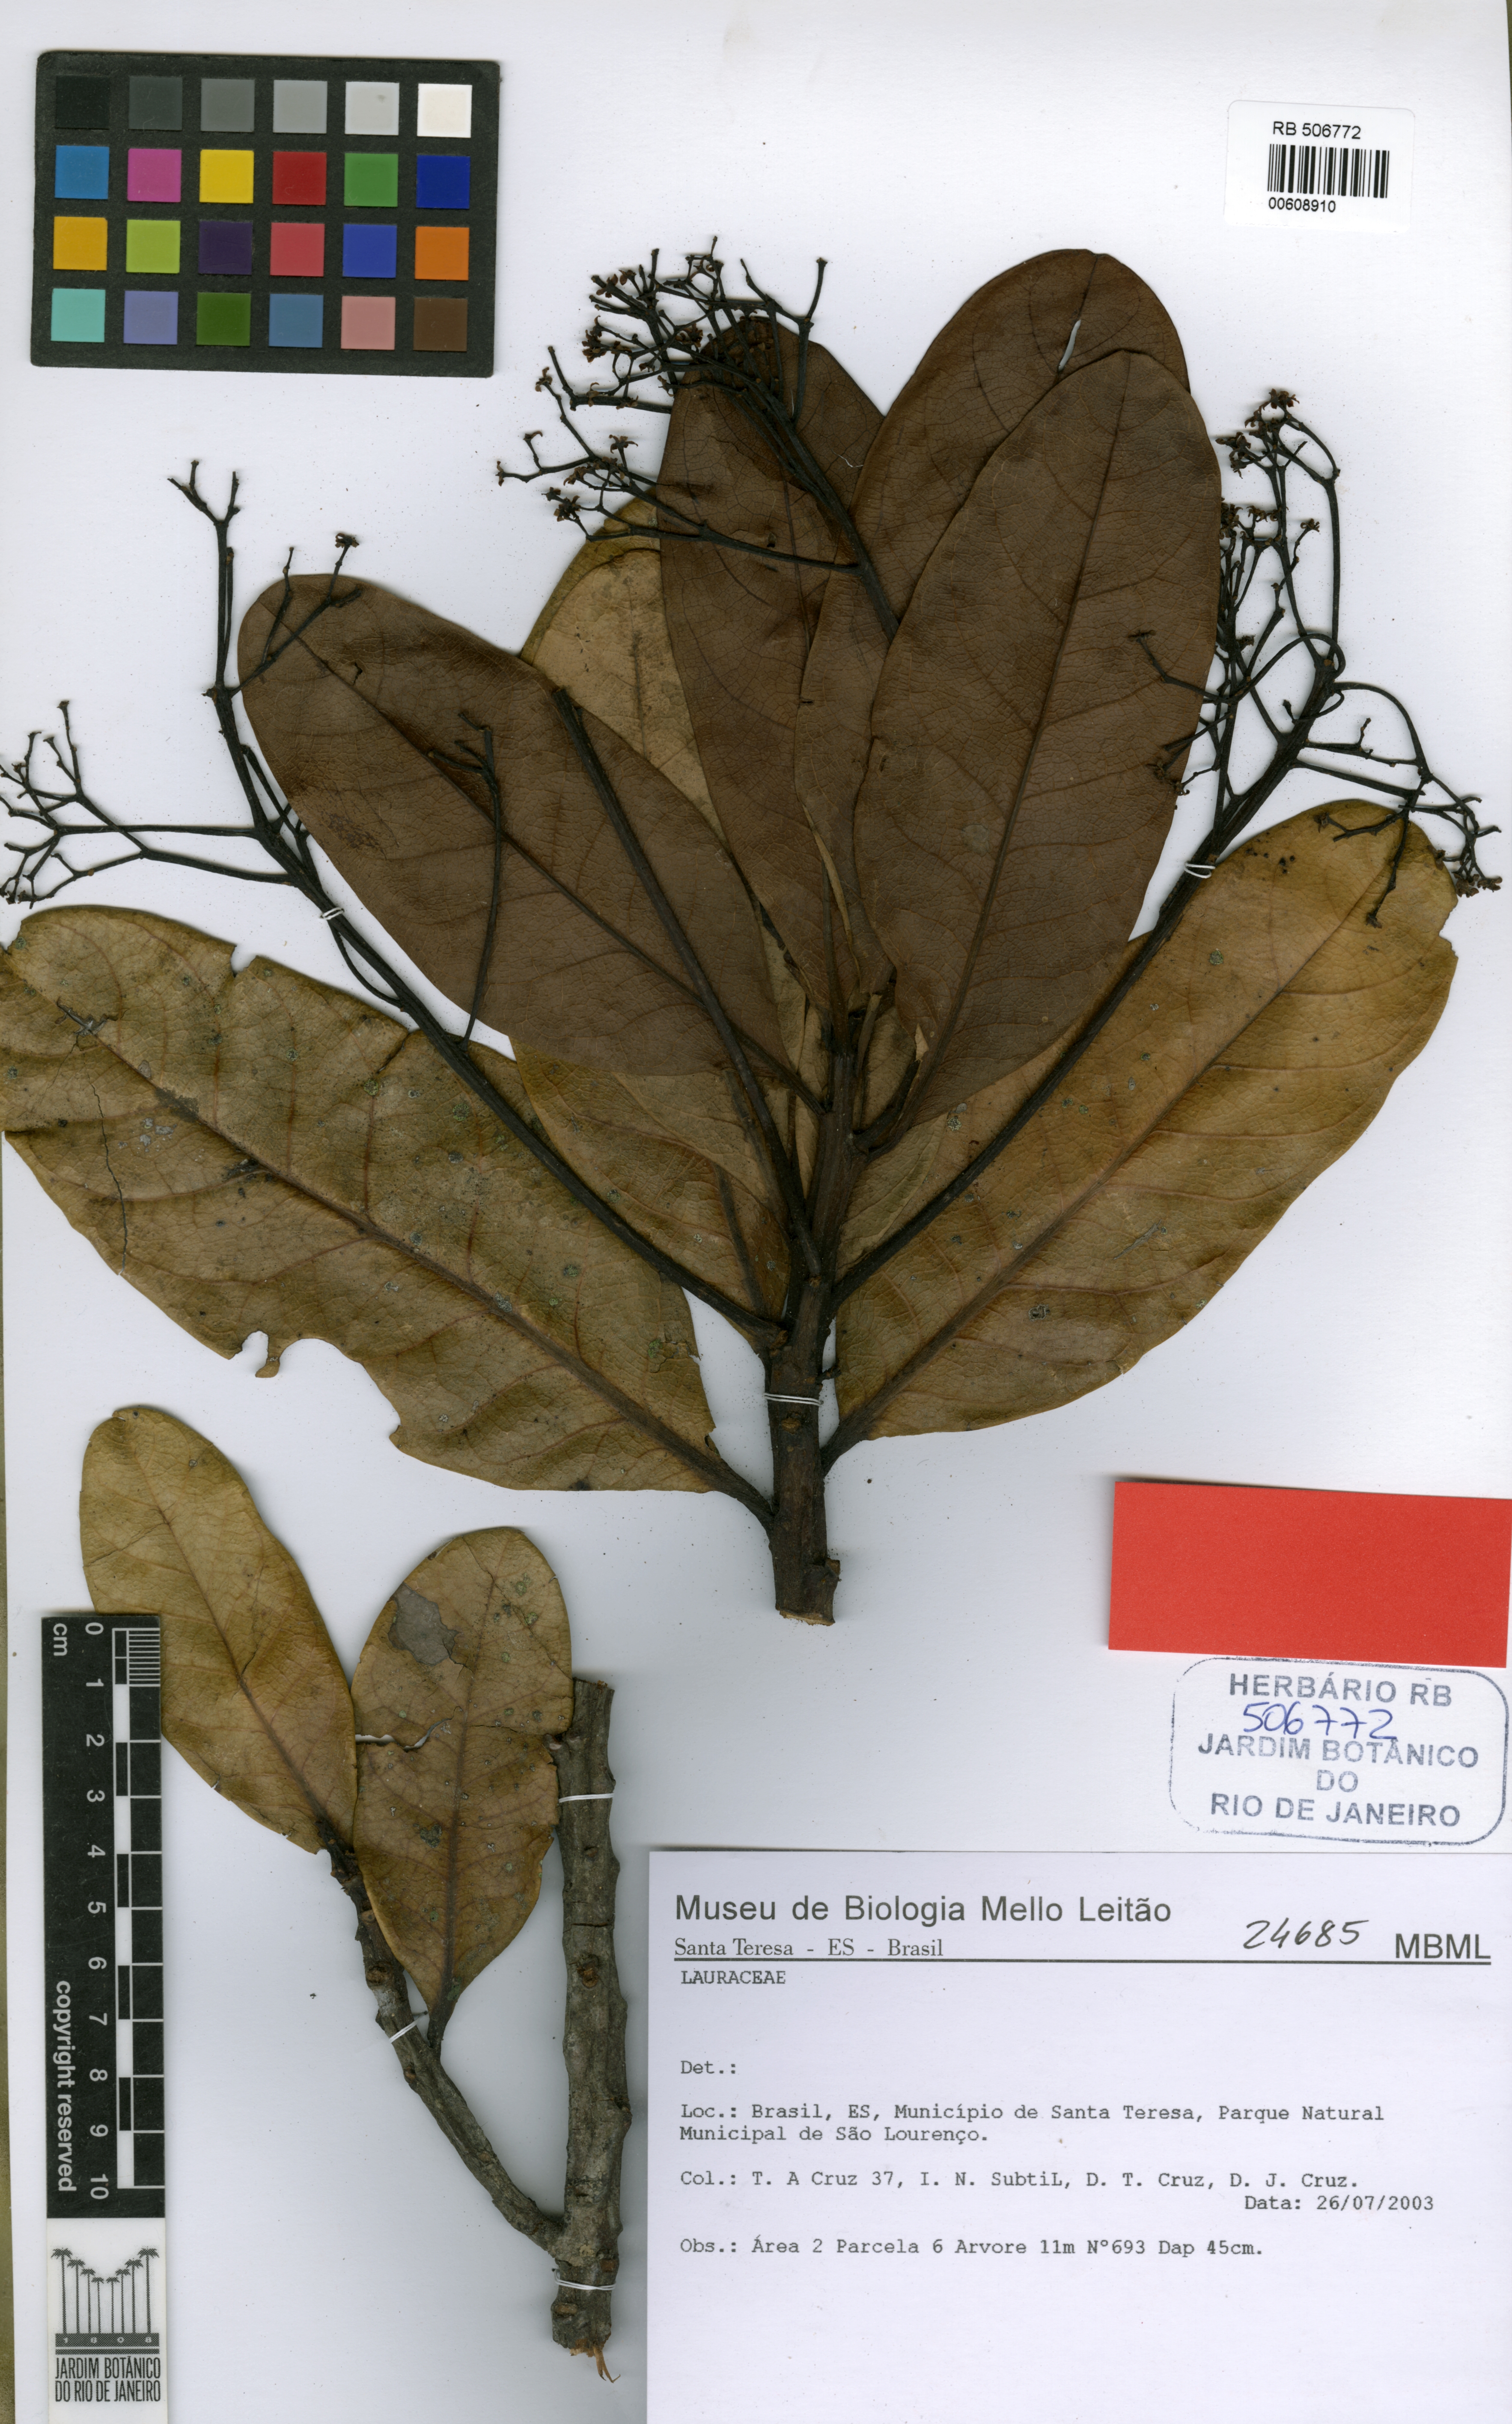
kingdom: Plantae
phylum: Tracheophyta
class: Magnoliopsida
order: Laurales
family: Lauraceae
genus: Ocotea
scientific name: Ocotea revolutifolia
